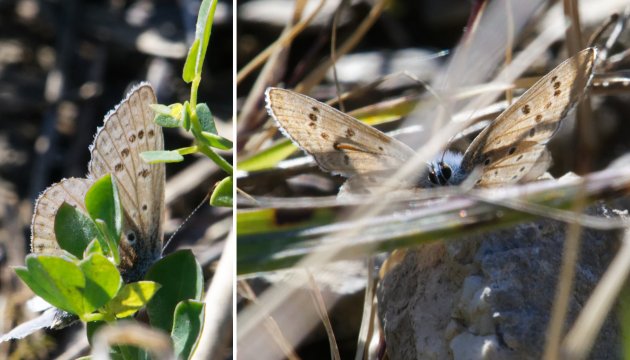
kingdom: Animalia
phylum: Arthropoda
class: Insecta
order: Lepidoptera
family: Lycaenidae
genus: Polyommatus
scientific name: Polyommatus icarus
